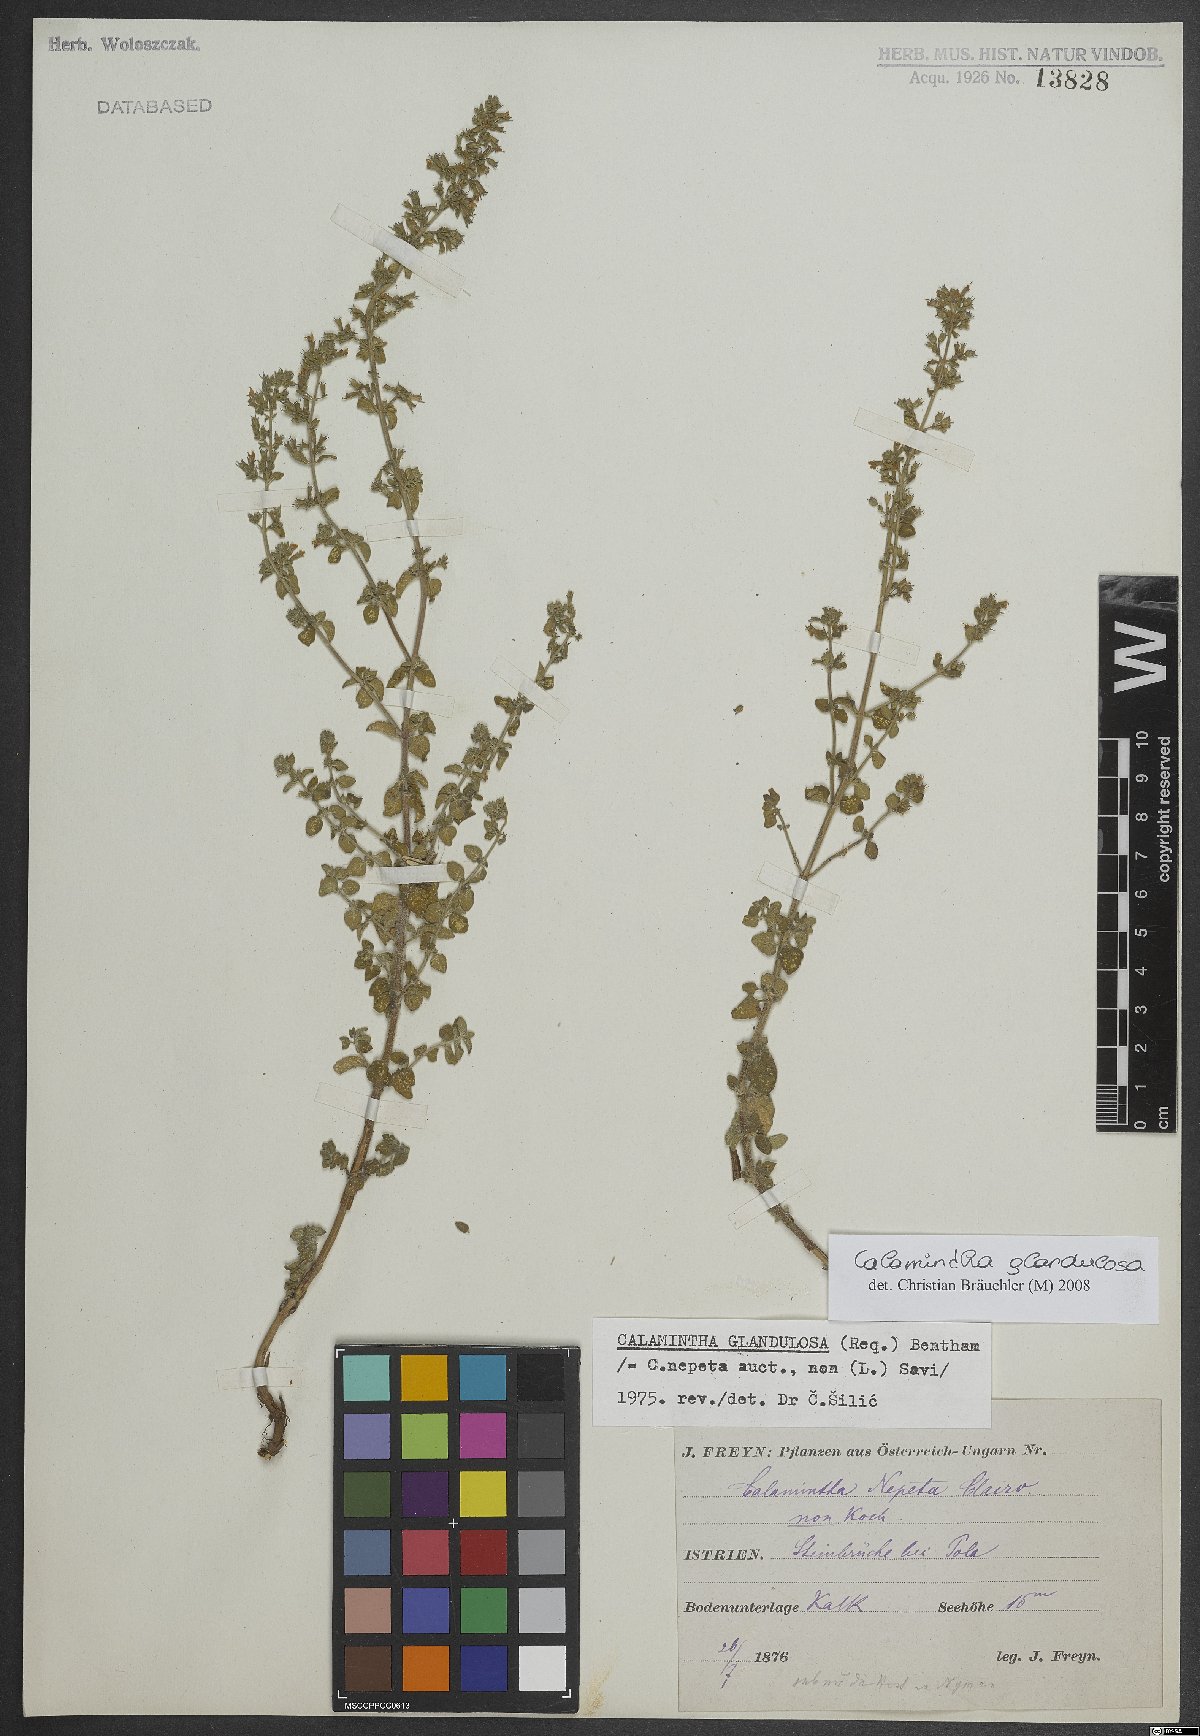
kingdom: Plantae
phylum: Tracheophyta
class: Magnoliopsida
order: Lamiales
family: Lamiaceae
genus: Clinopodium
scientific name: Clinopodium nepeta
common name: Lesser calamint
